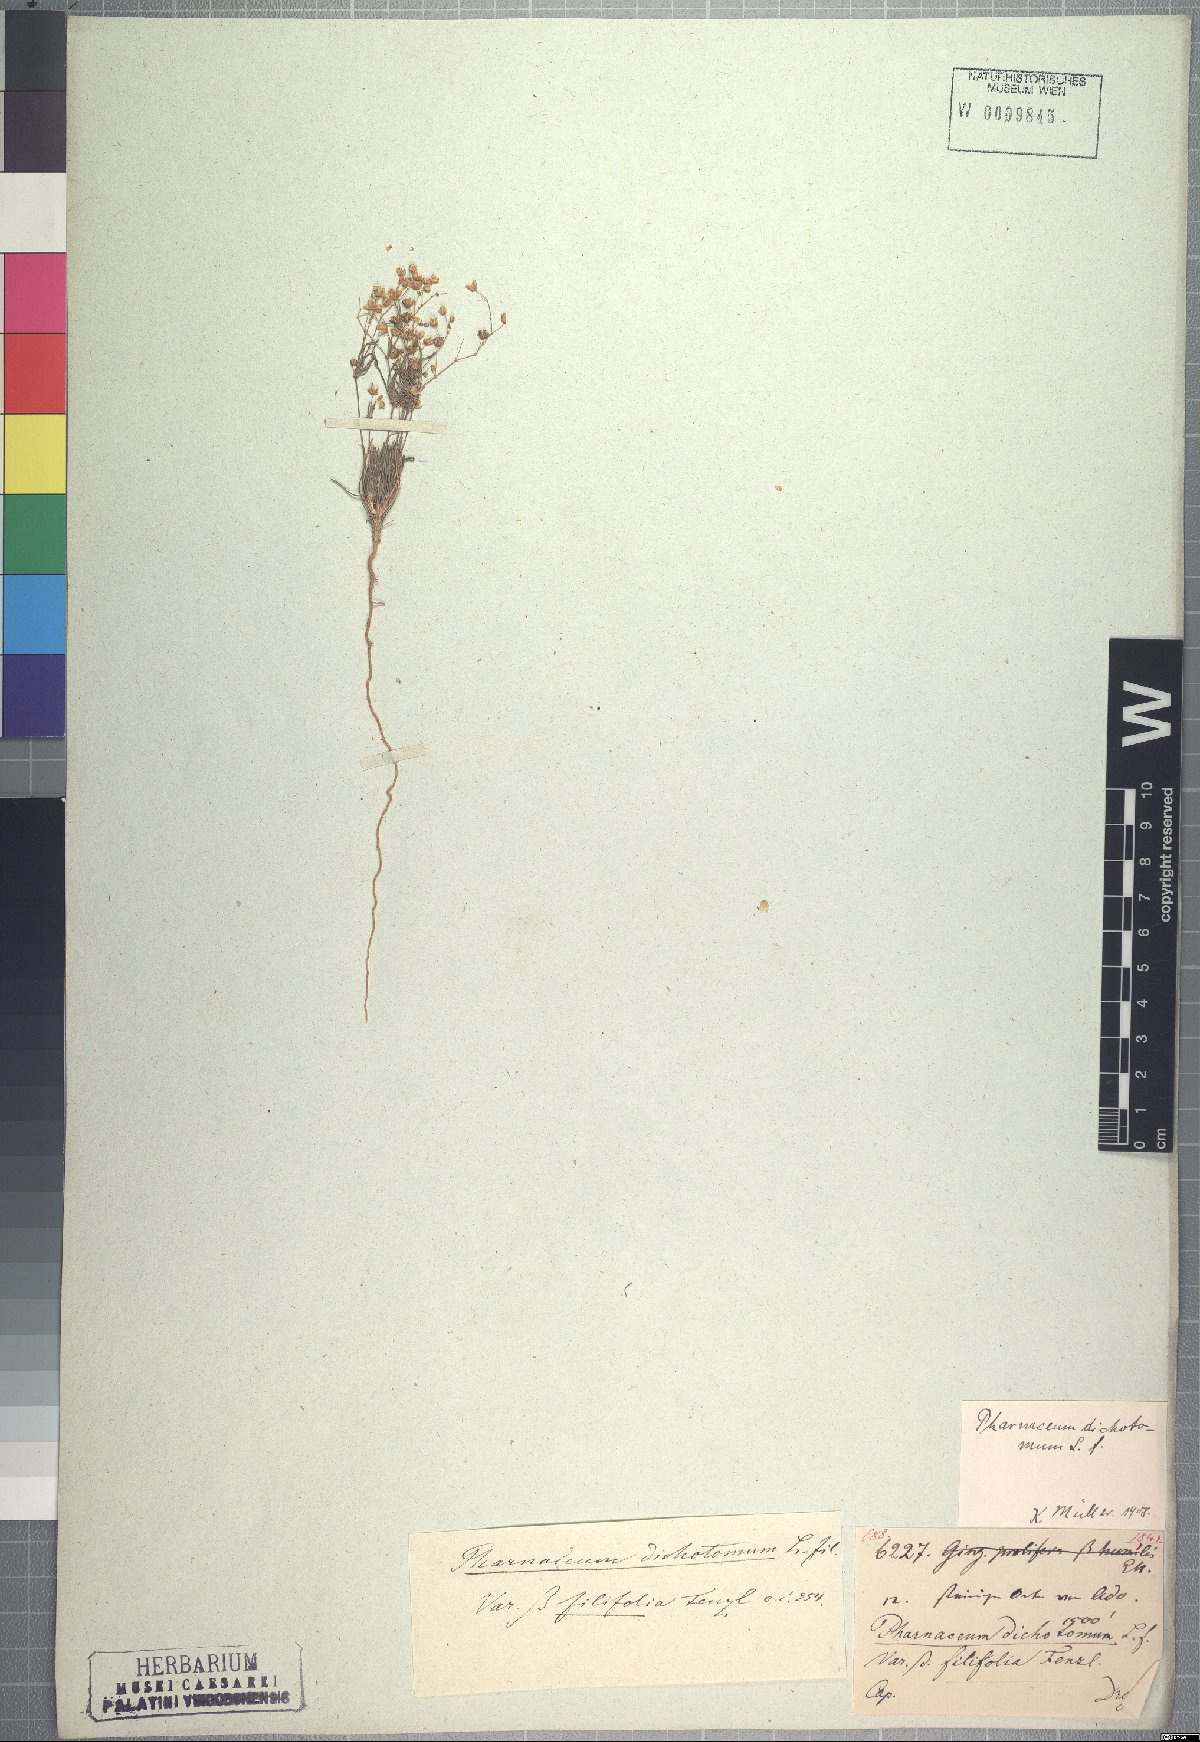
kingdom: Plantae
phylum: Tracheophyta
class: Magnoliopsida
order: Caryophyllales
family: Molluginaceae
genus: Pharnaceum
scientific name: Pharnaceum dichotomum
